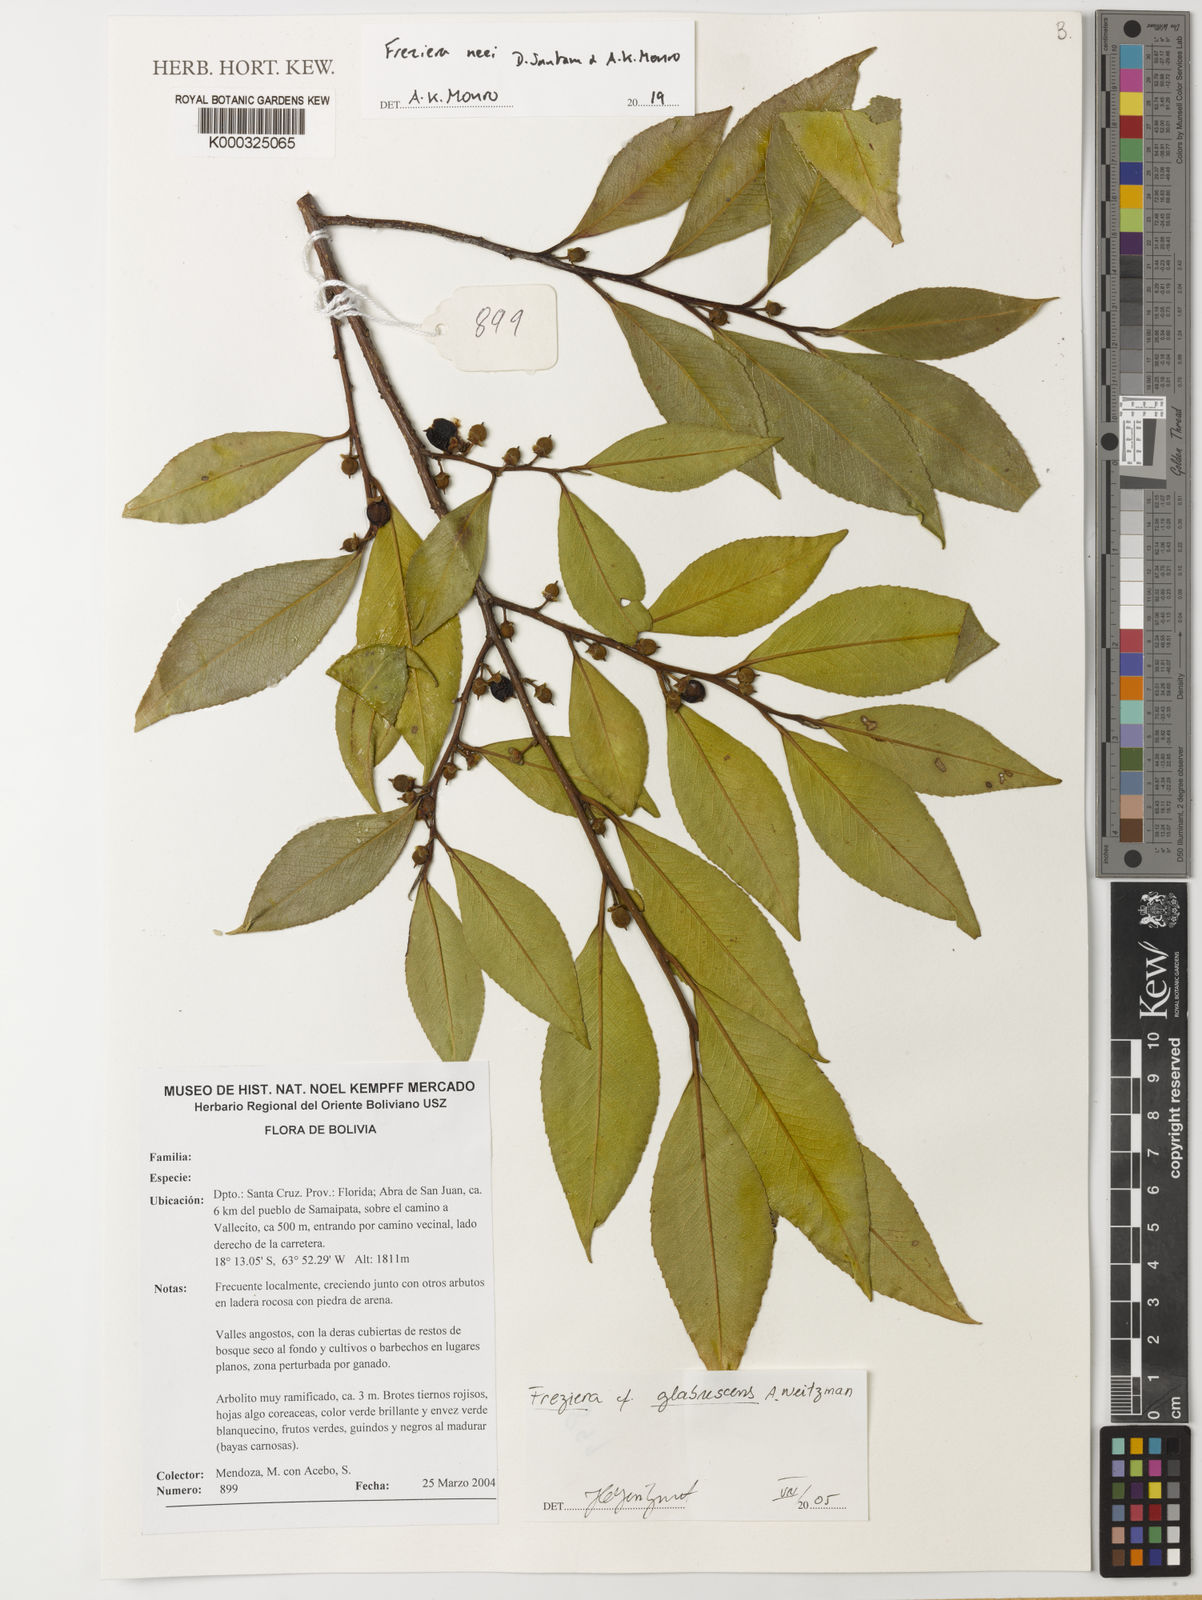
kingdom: Plantae
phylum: Tracheophyta
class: Magnoliopsida
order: Ericales
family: Pentaphylacaceae
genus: Freziera
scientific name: Freziera
